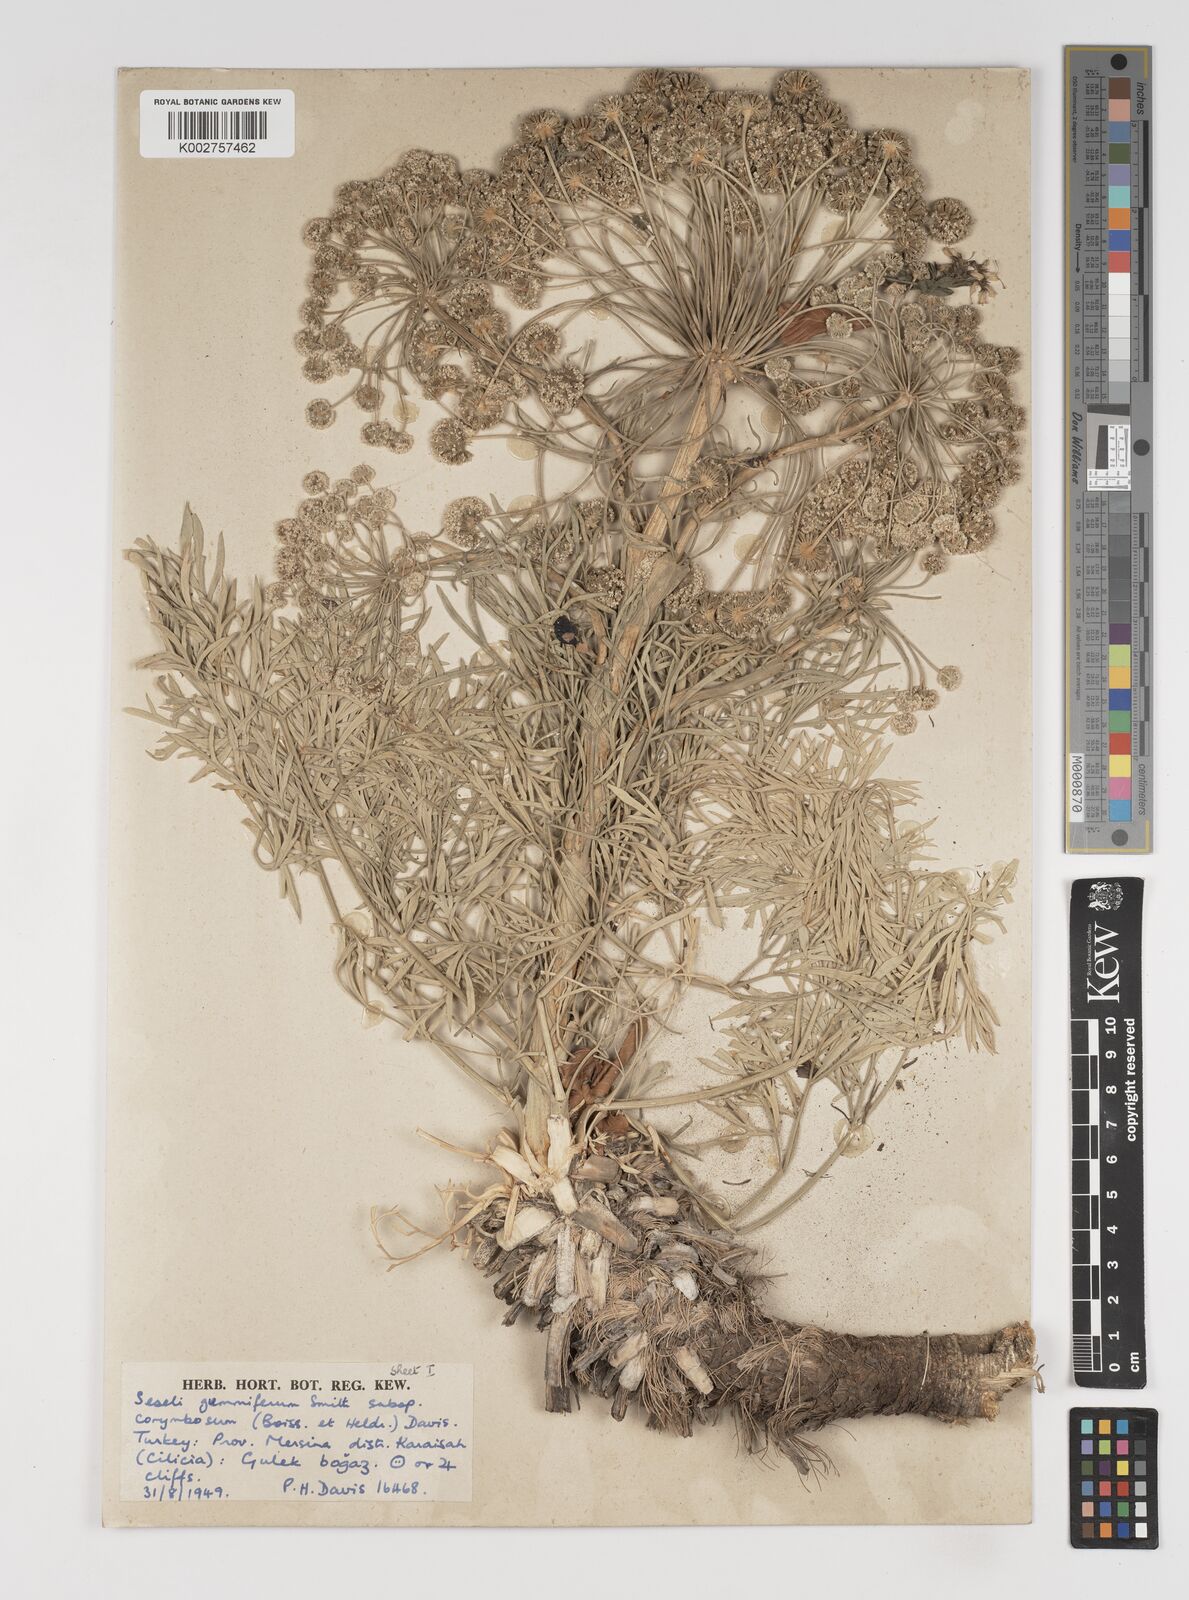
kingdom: Plantae
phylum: Tracheophyta
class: Magnoliopsida
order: Apiales
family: Apiaceae
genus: Seseli
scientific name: Seseli gummiferum
